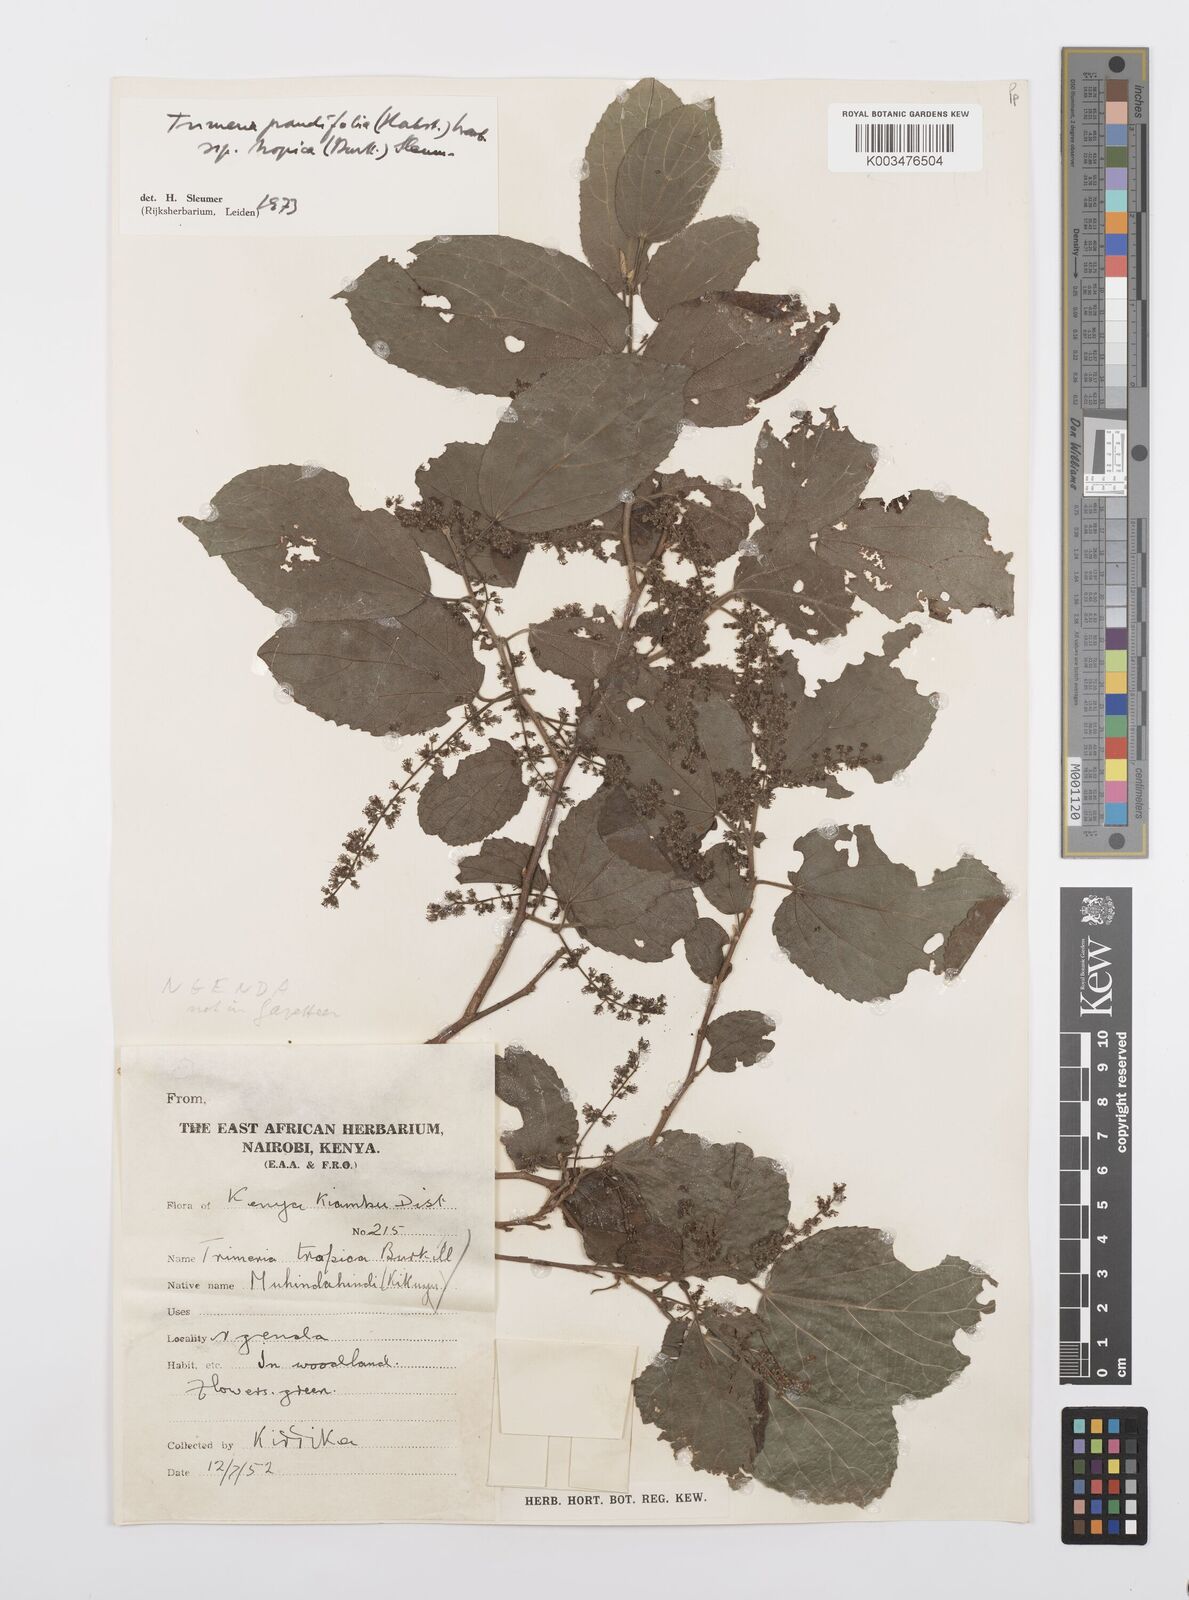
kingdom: Plantae
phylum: Tracheophyta
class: Magnoliopsida
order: Malpighiales
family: Salicaceae
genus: Trimeria
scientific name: Trimeria grandifolia
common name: Wild mulberry
